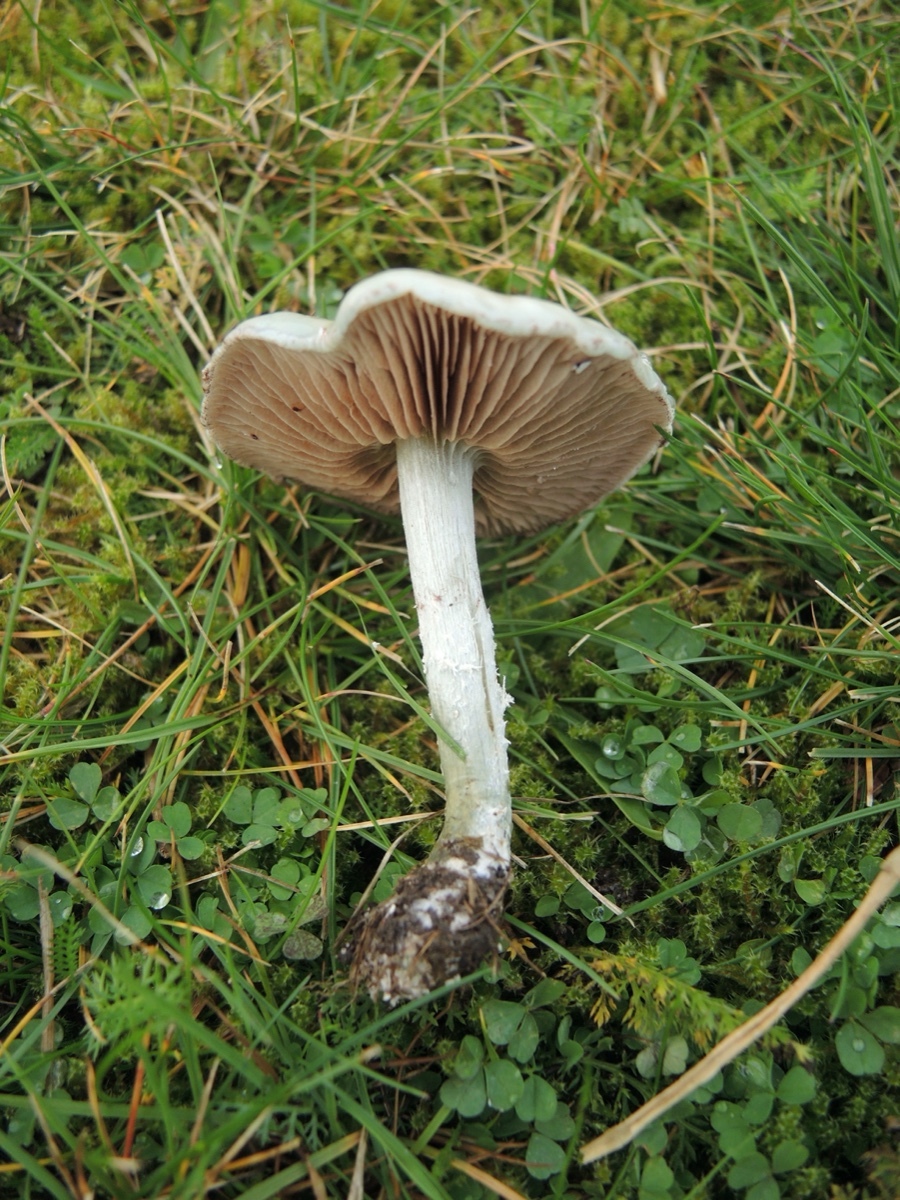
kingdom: Fungi
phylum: Basidiomycota
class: Agaricomycetes
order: Agaricales
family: Strophariaceae
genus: Stropharia
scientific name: Stropharia pseudocyanea
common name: blegblå bredblad
